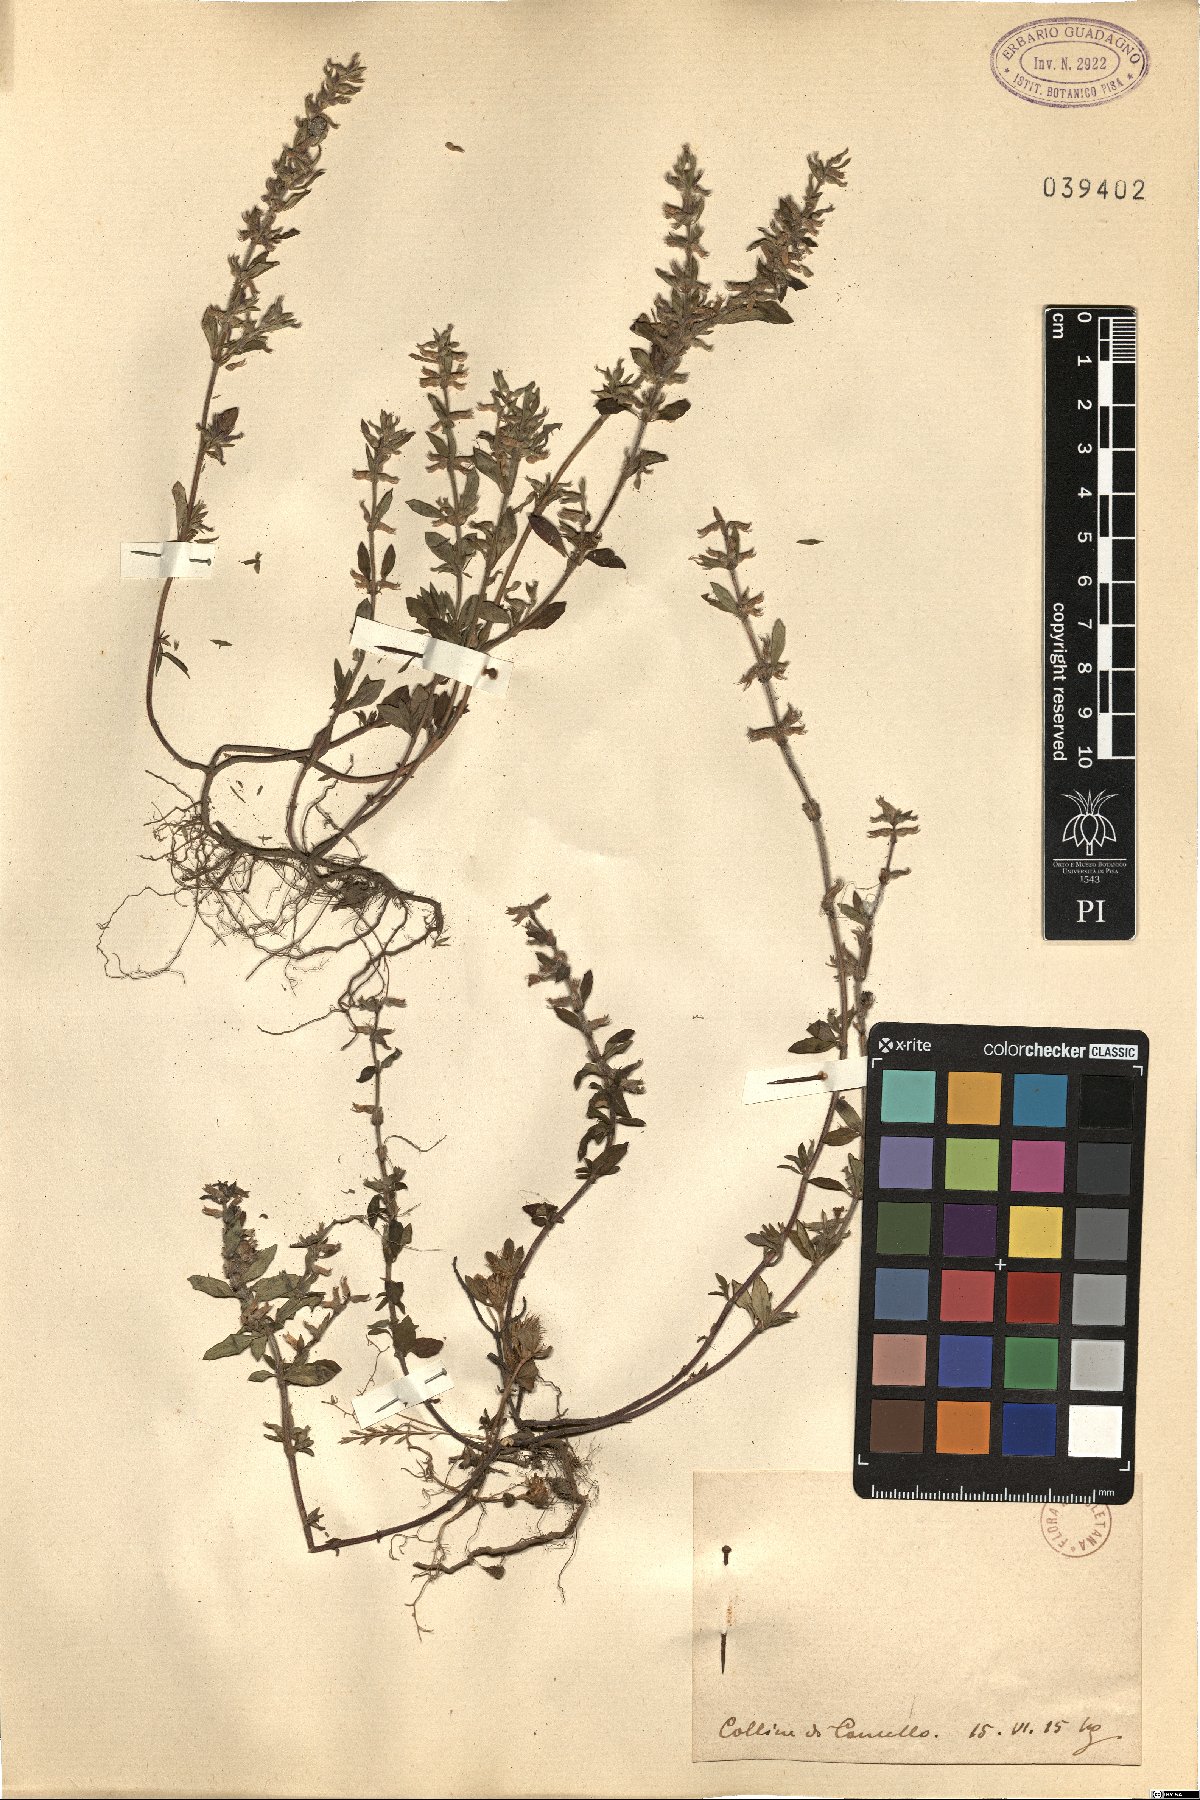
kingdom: Plantae
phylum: Tracheophyta
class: Magnoliopsida
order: Lamiales
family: Lamiaceae
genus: Calamintha
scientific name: Calamintha
